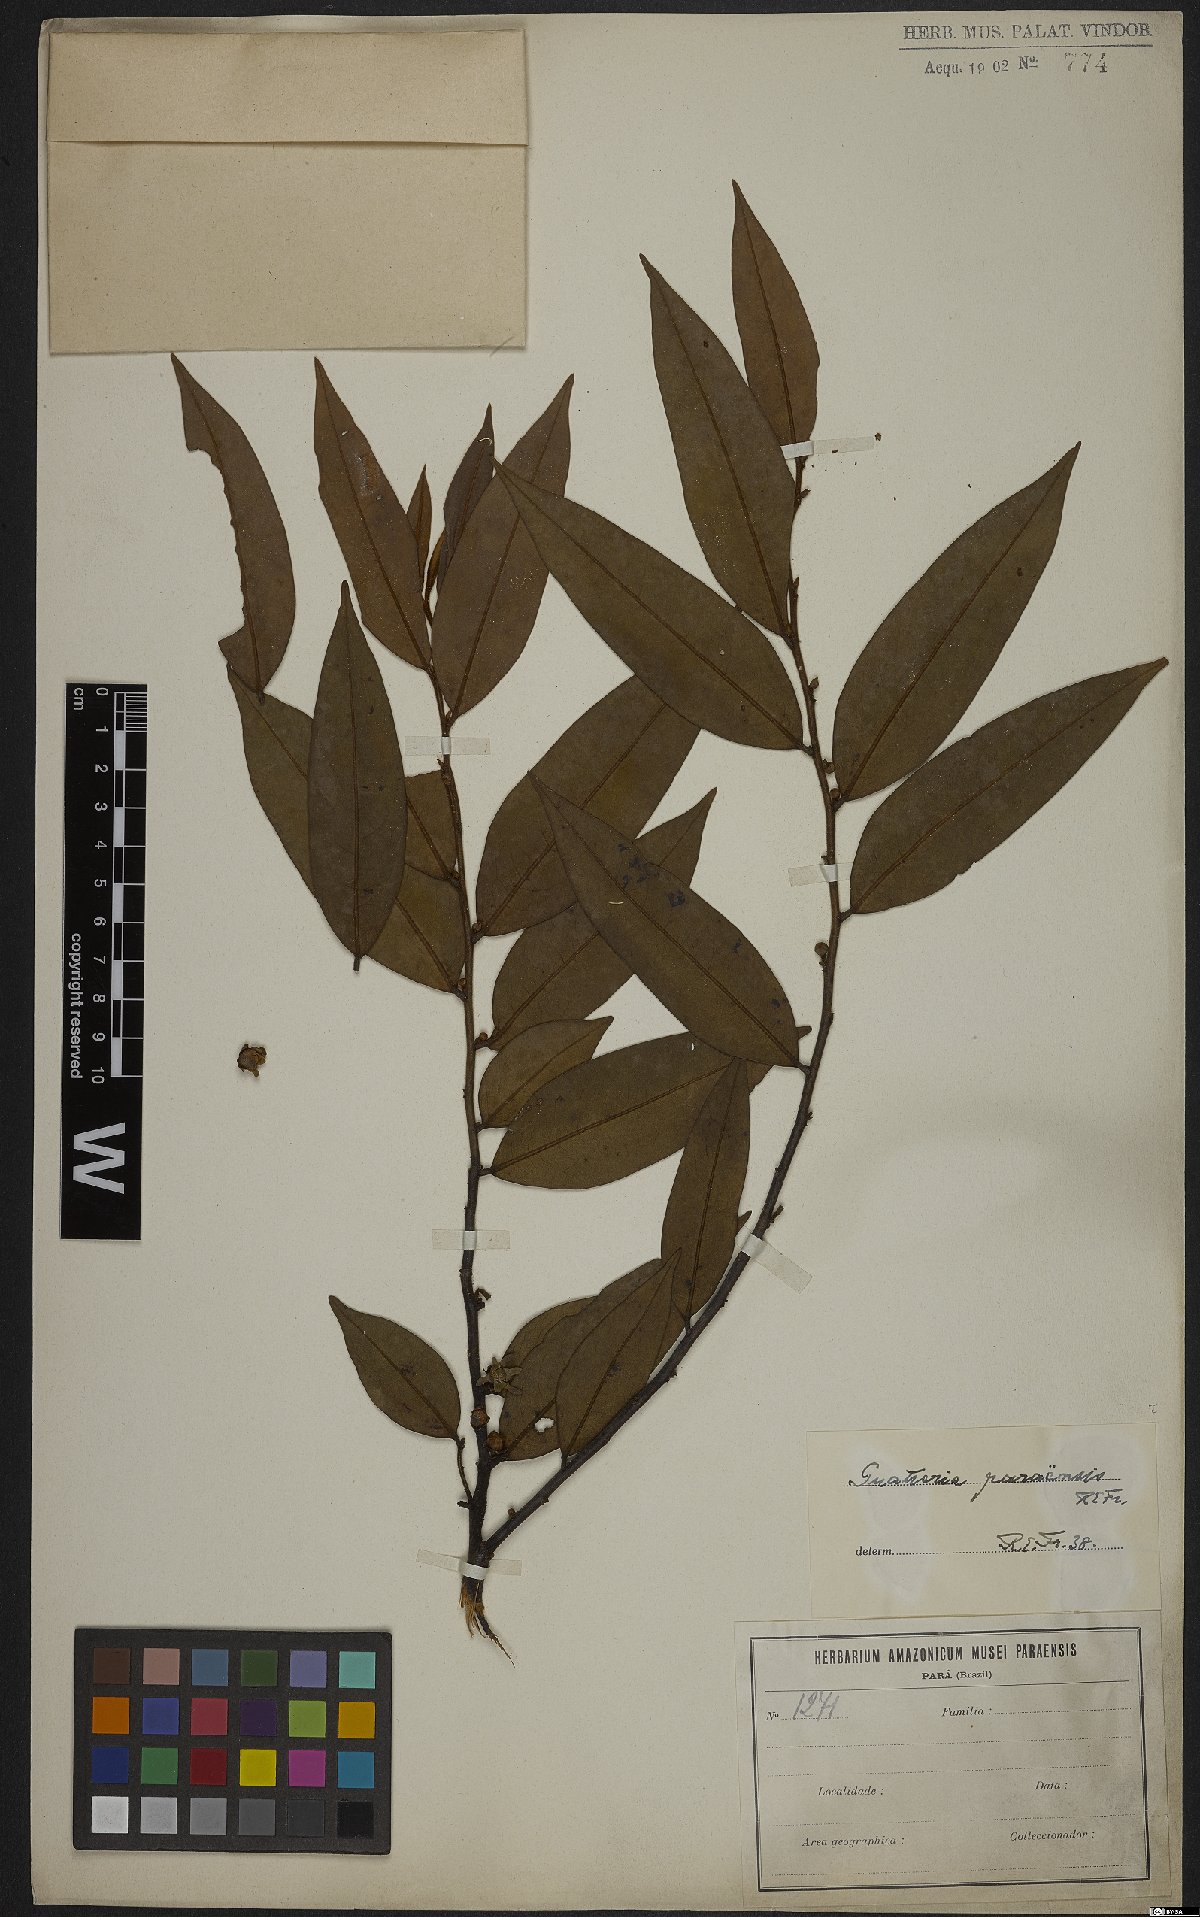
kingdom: Plantae
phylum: Tracheophyta
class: Magnoliopsida
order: Magnoliales
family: Annonaceae
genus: Guatteria
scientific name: Guatteria australis
